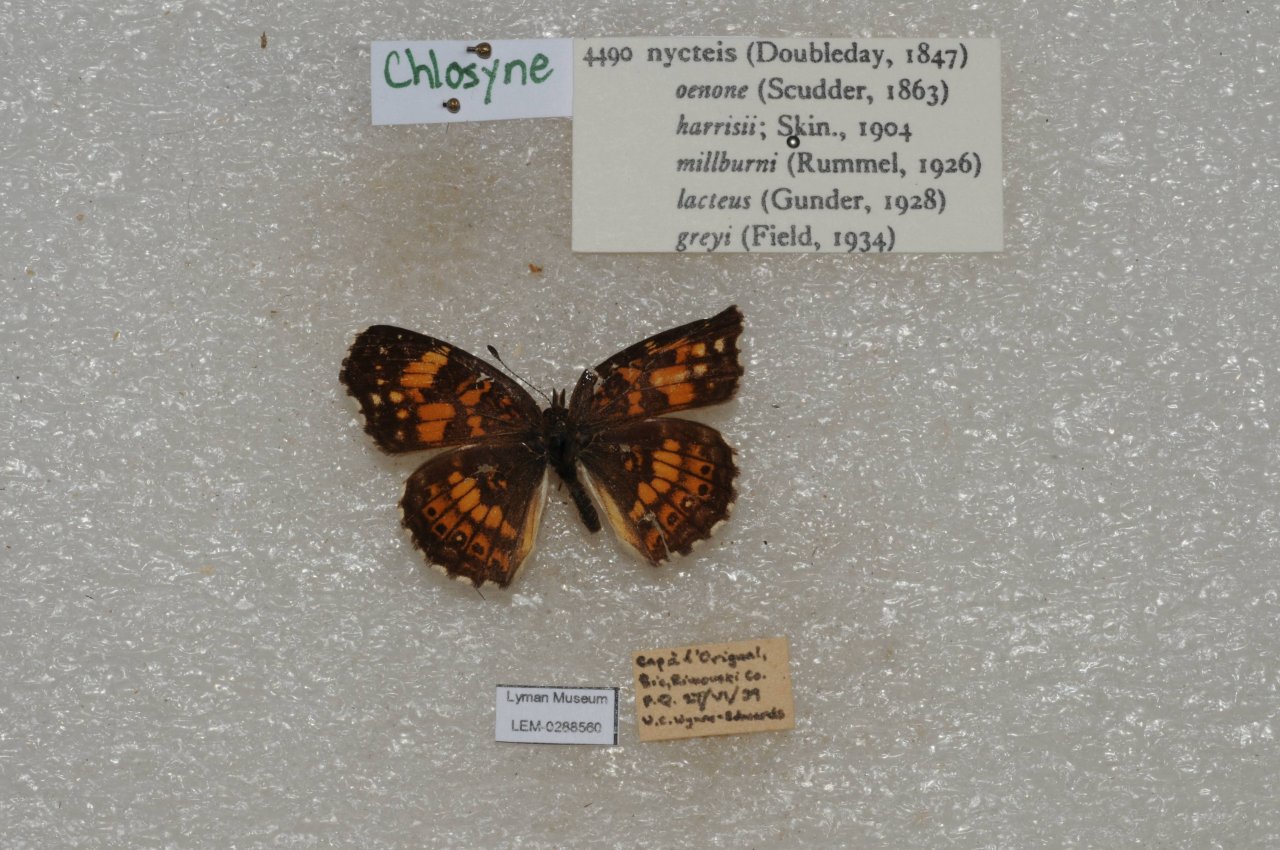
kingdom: Animalia
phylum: Arthropoda
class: Insecta
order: Lepidoptera
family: Nymphalidae
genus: Chlosyne
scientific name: Chlosyne nycteis
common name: Silvery Checkerspot
